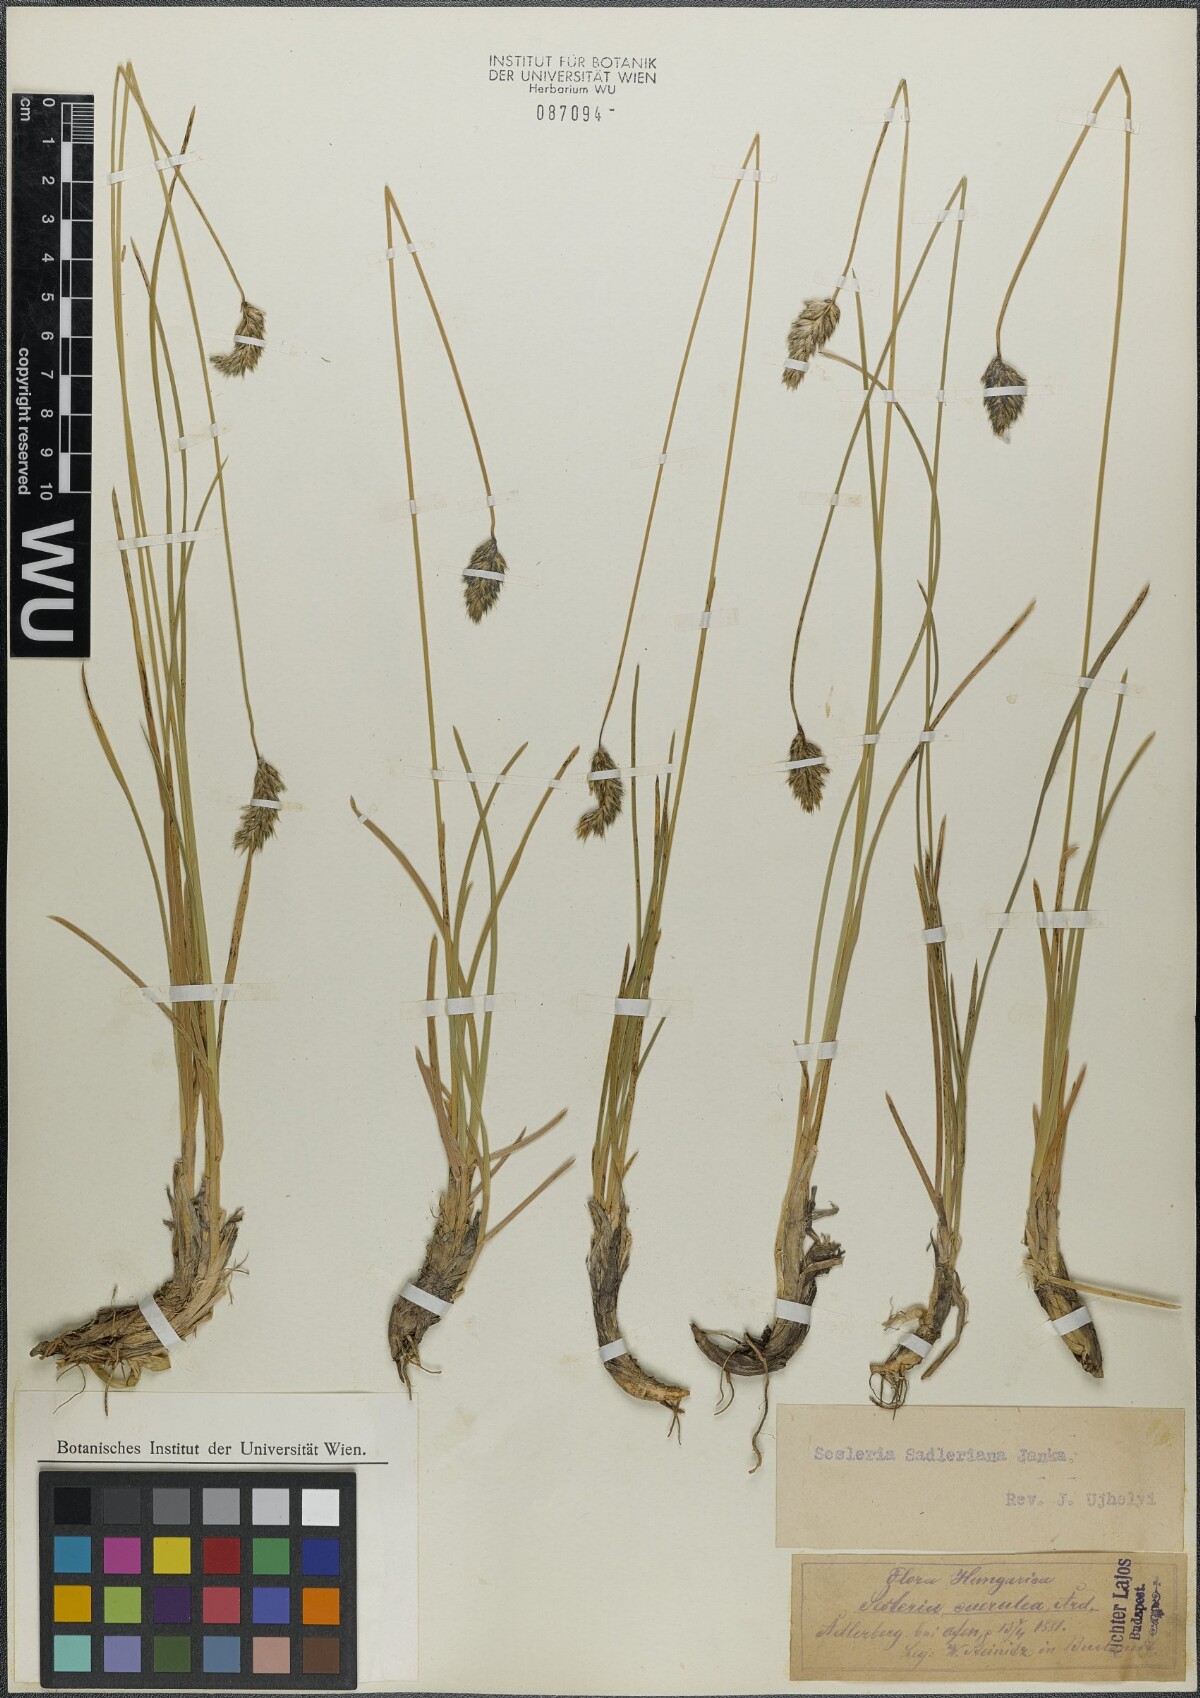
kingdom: Plantae
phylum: Tracheophyta
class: Liliopsida
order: Poales
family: Poaceae
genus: Sesleria
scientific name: Sesleria sadleriana
